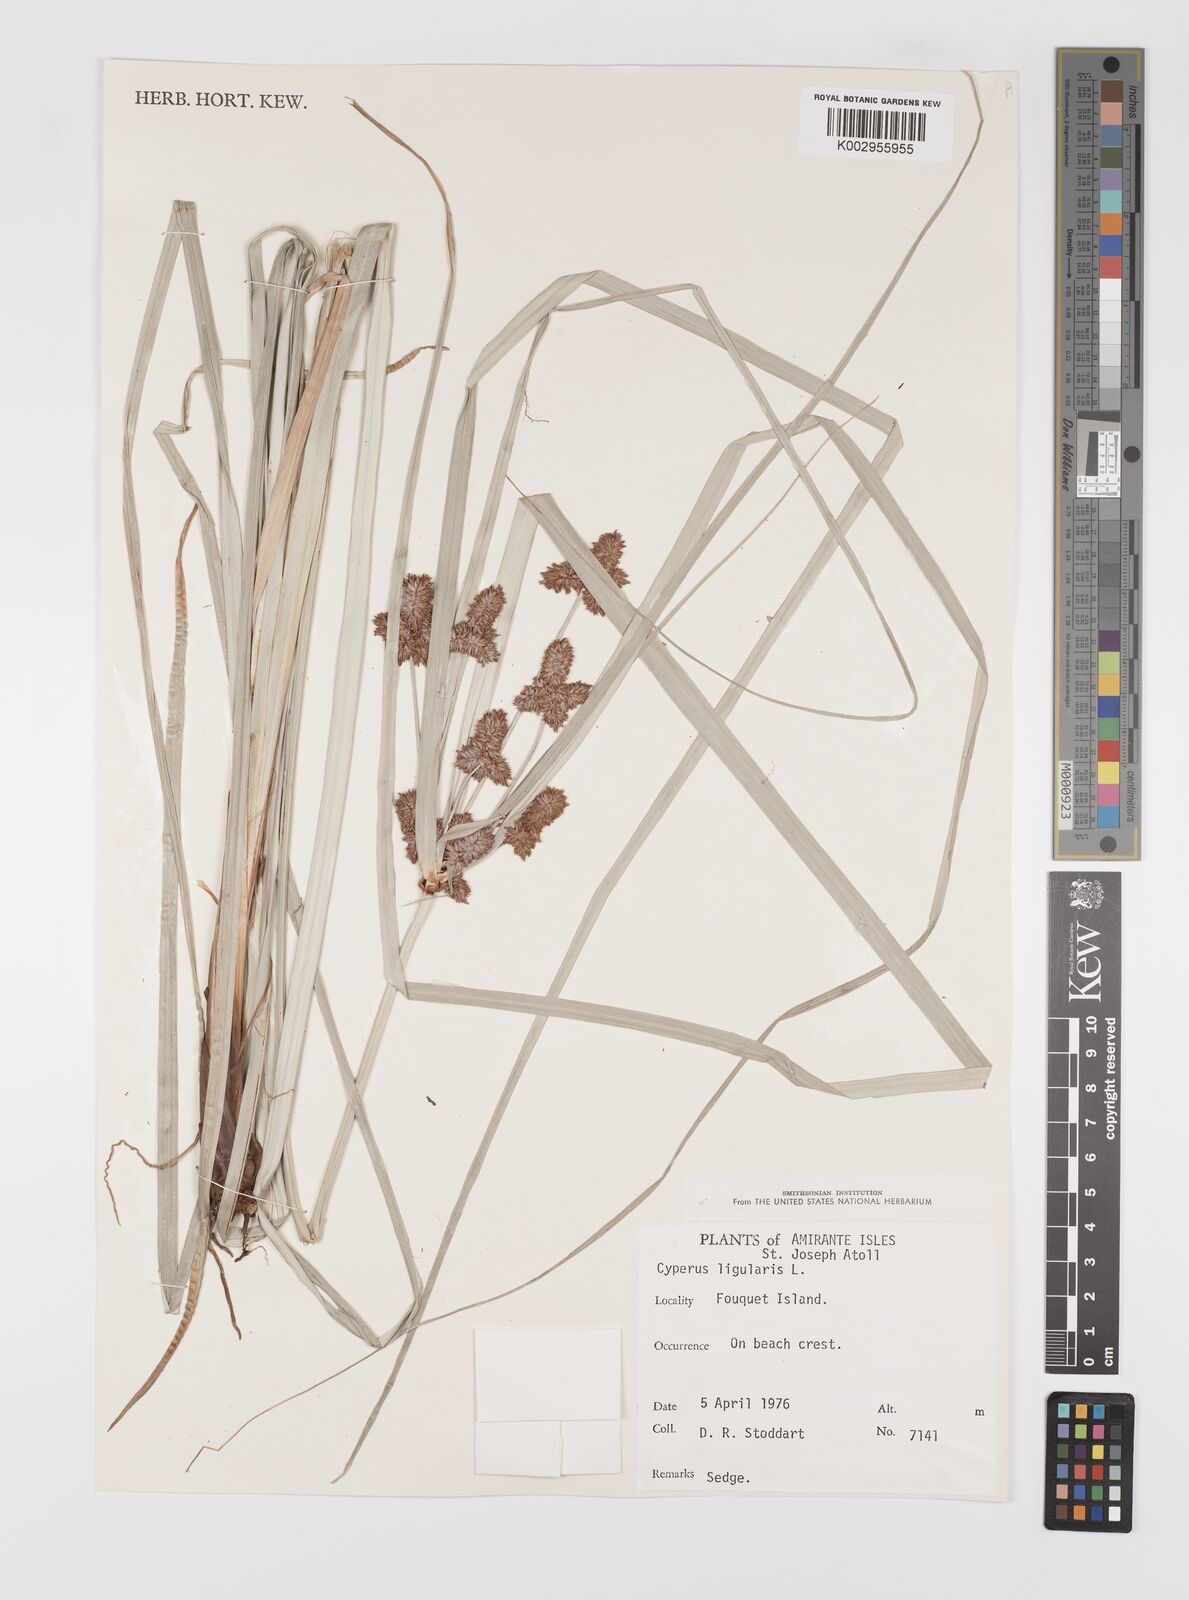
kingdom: Plantae
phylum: Tracheophyta
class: Liliopsida
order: Poales
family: Cyperaceae
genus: Cyperus
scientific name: Cyperus ligularis
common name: Swamp flat sedge
